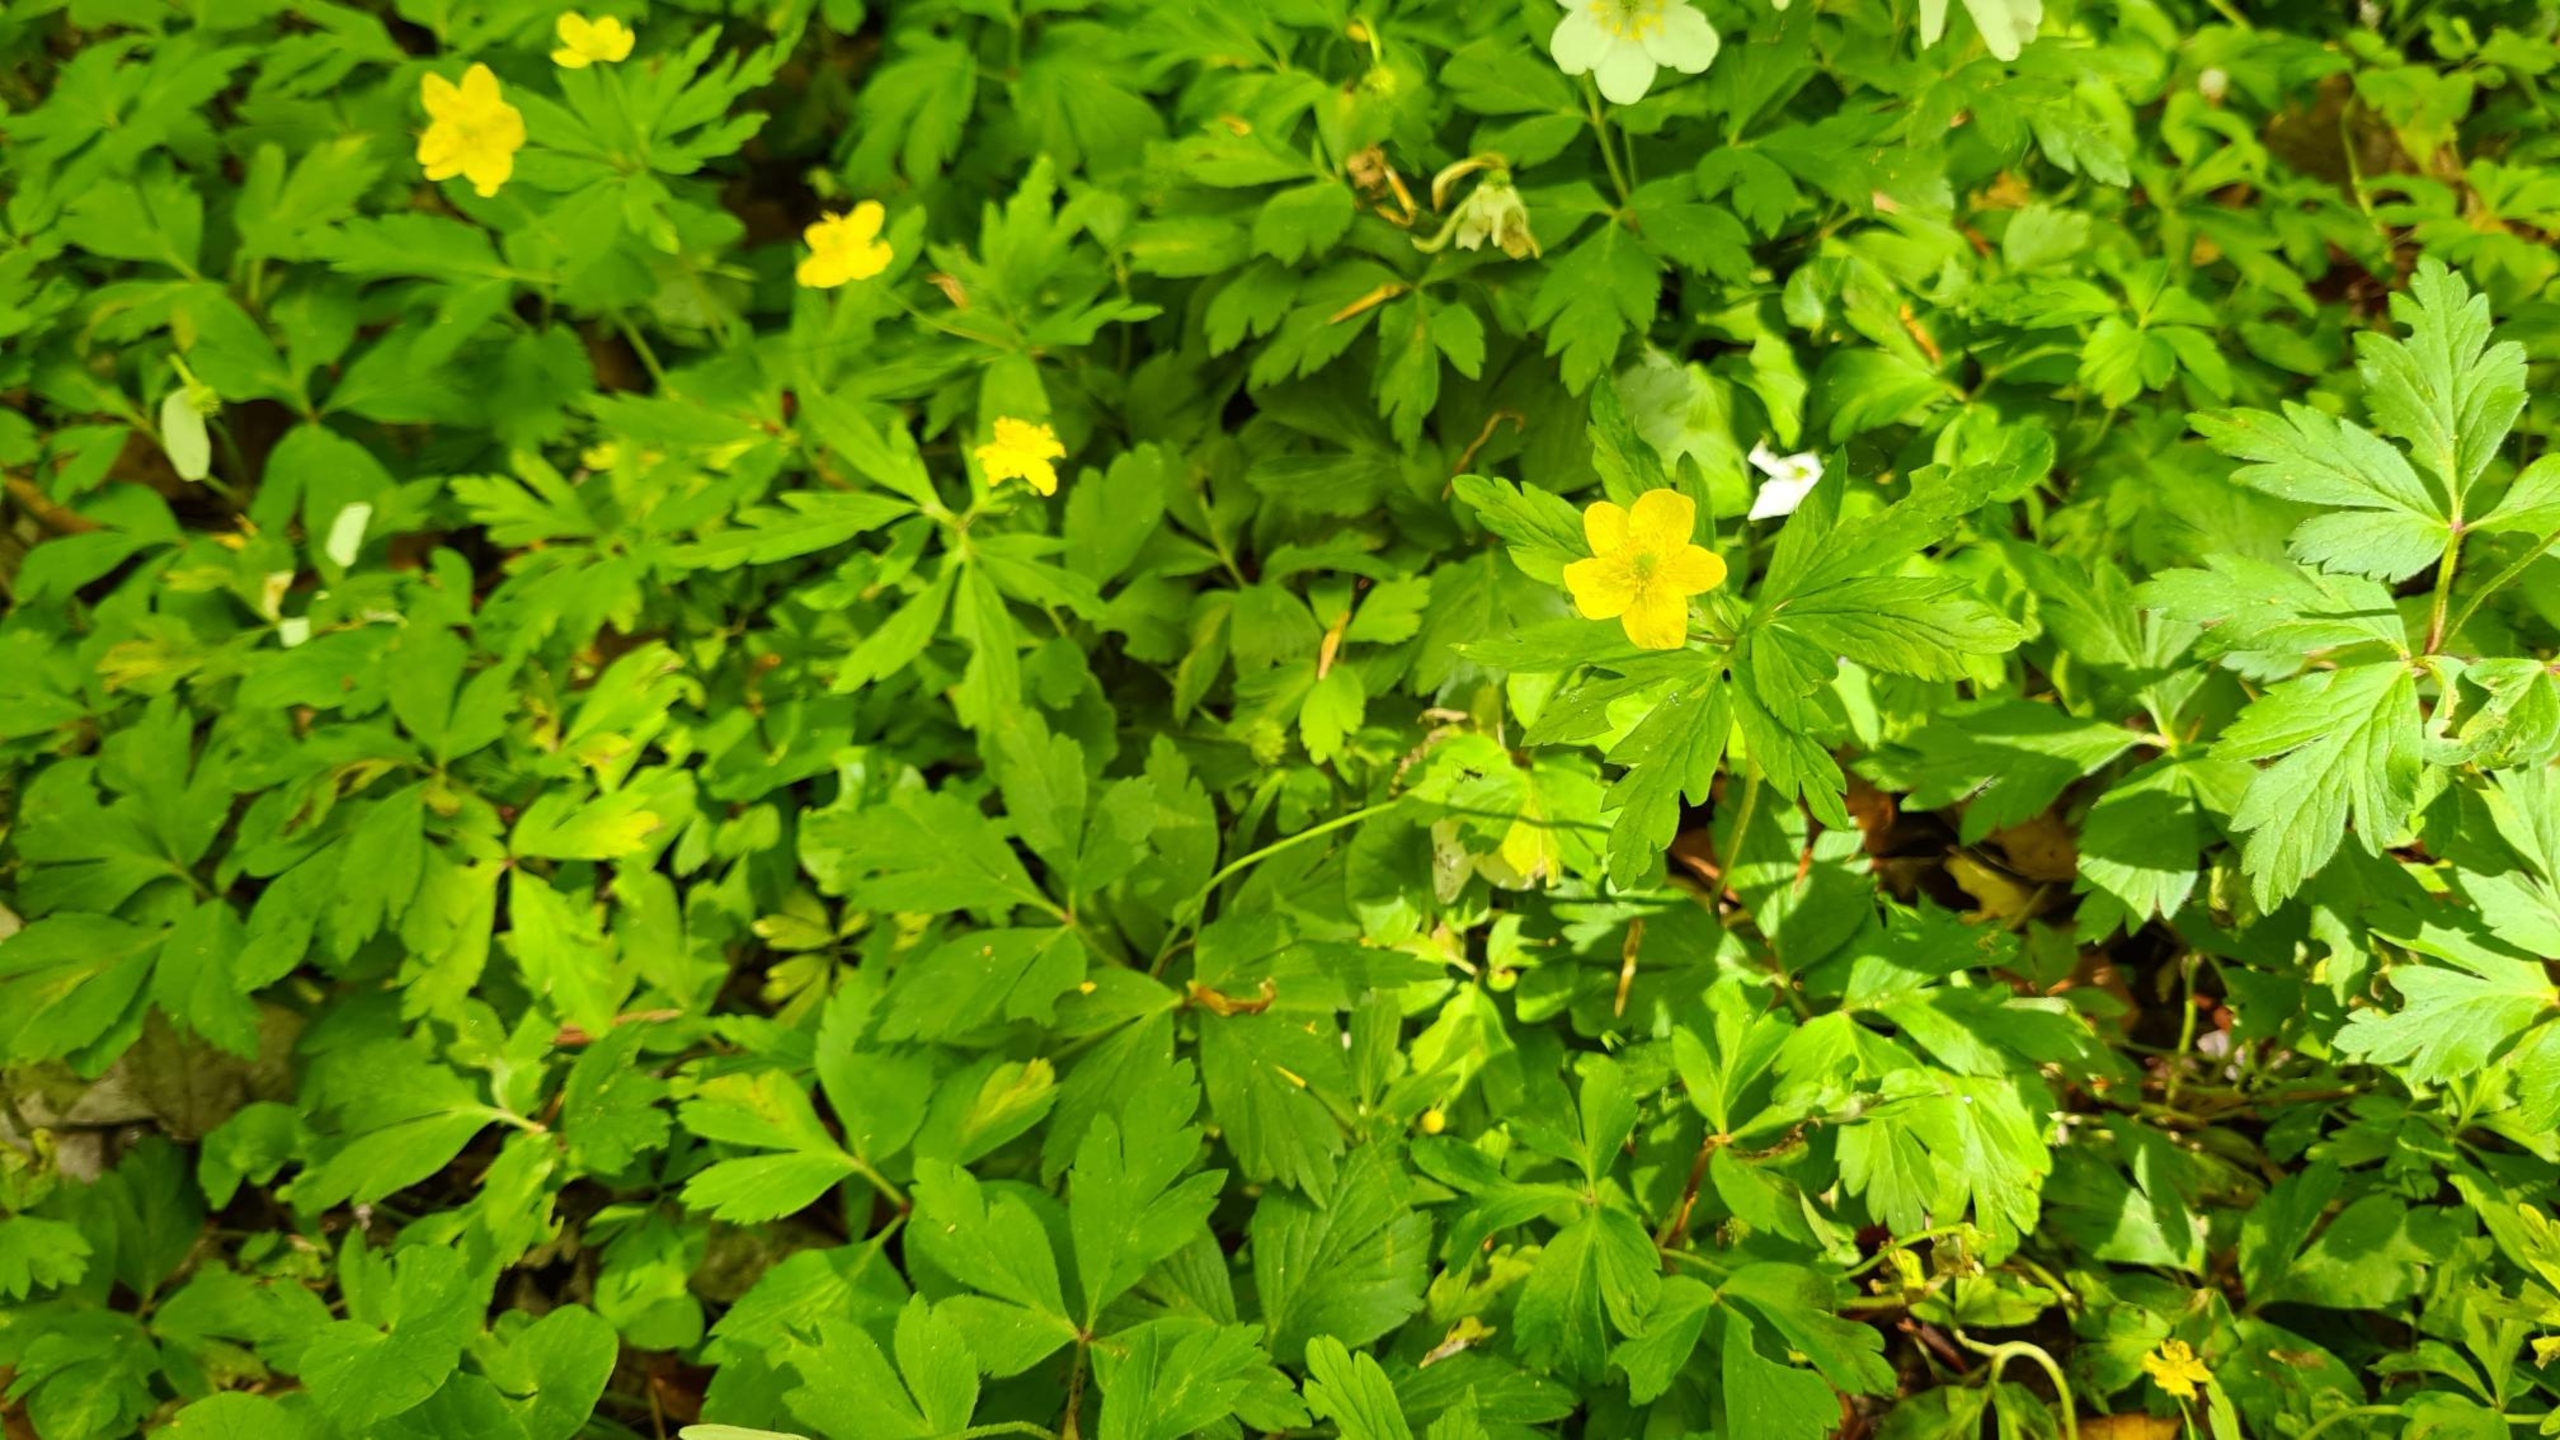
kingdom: Plantae
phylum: Tracheophyta
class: Magnoliopsida
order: Ranunculales
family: Ranunculaceae
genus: Anemone
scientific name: Anemone ranunculoides
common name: Gul anemone
